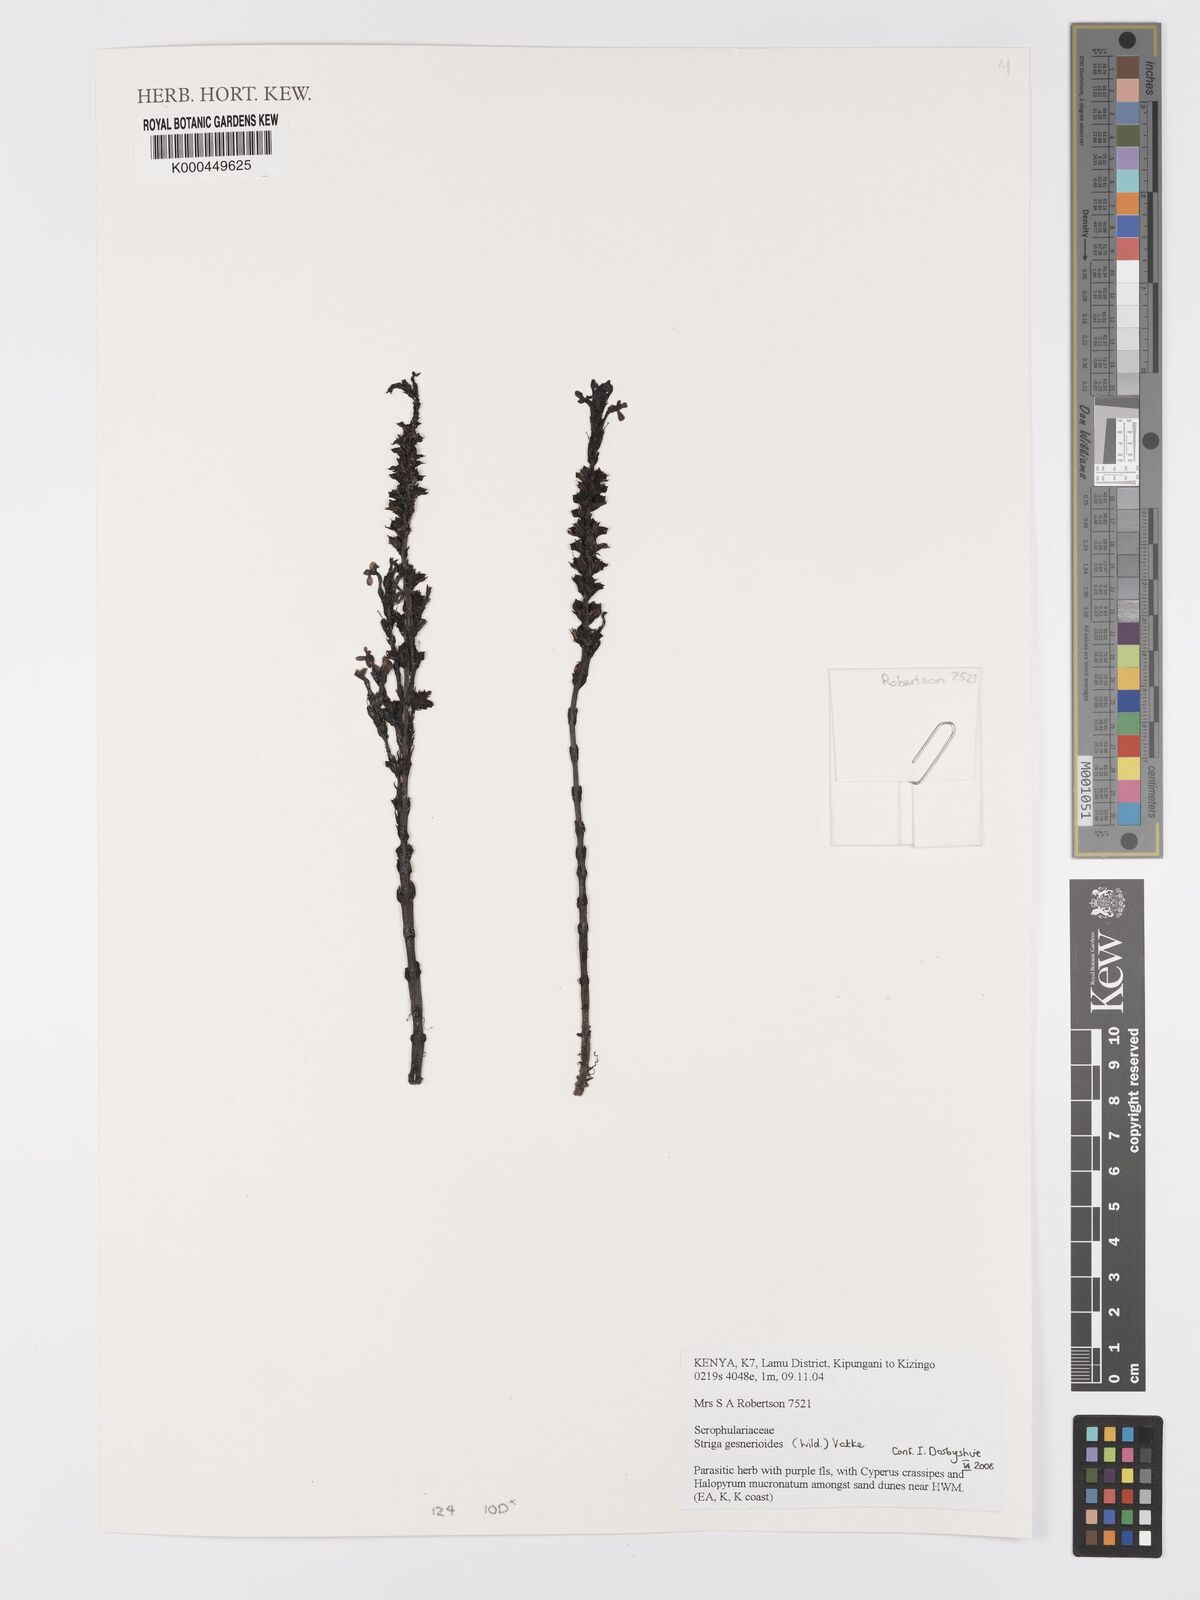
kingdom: Plantae
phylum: Tracheophyta
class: Magnoliopsida
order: Lamiales
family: Orobanchaceae
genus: Striga
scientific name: Striga gesnerioides
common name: Cowpea witchweed
